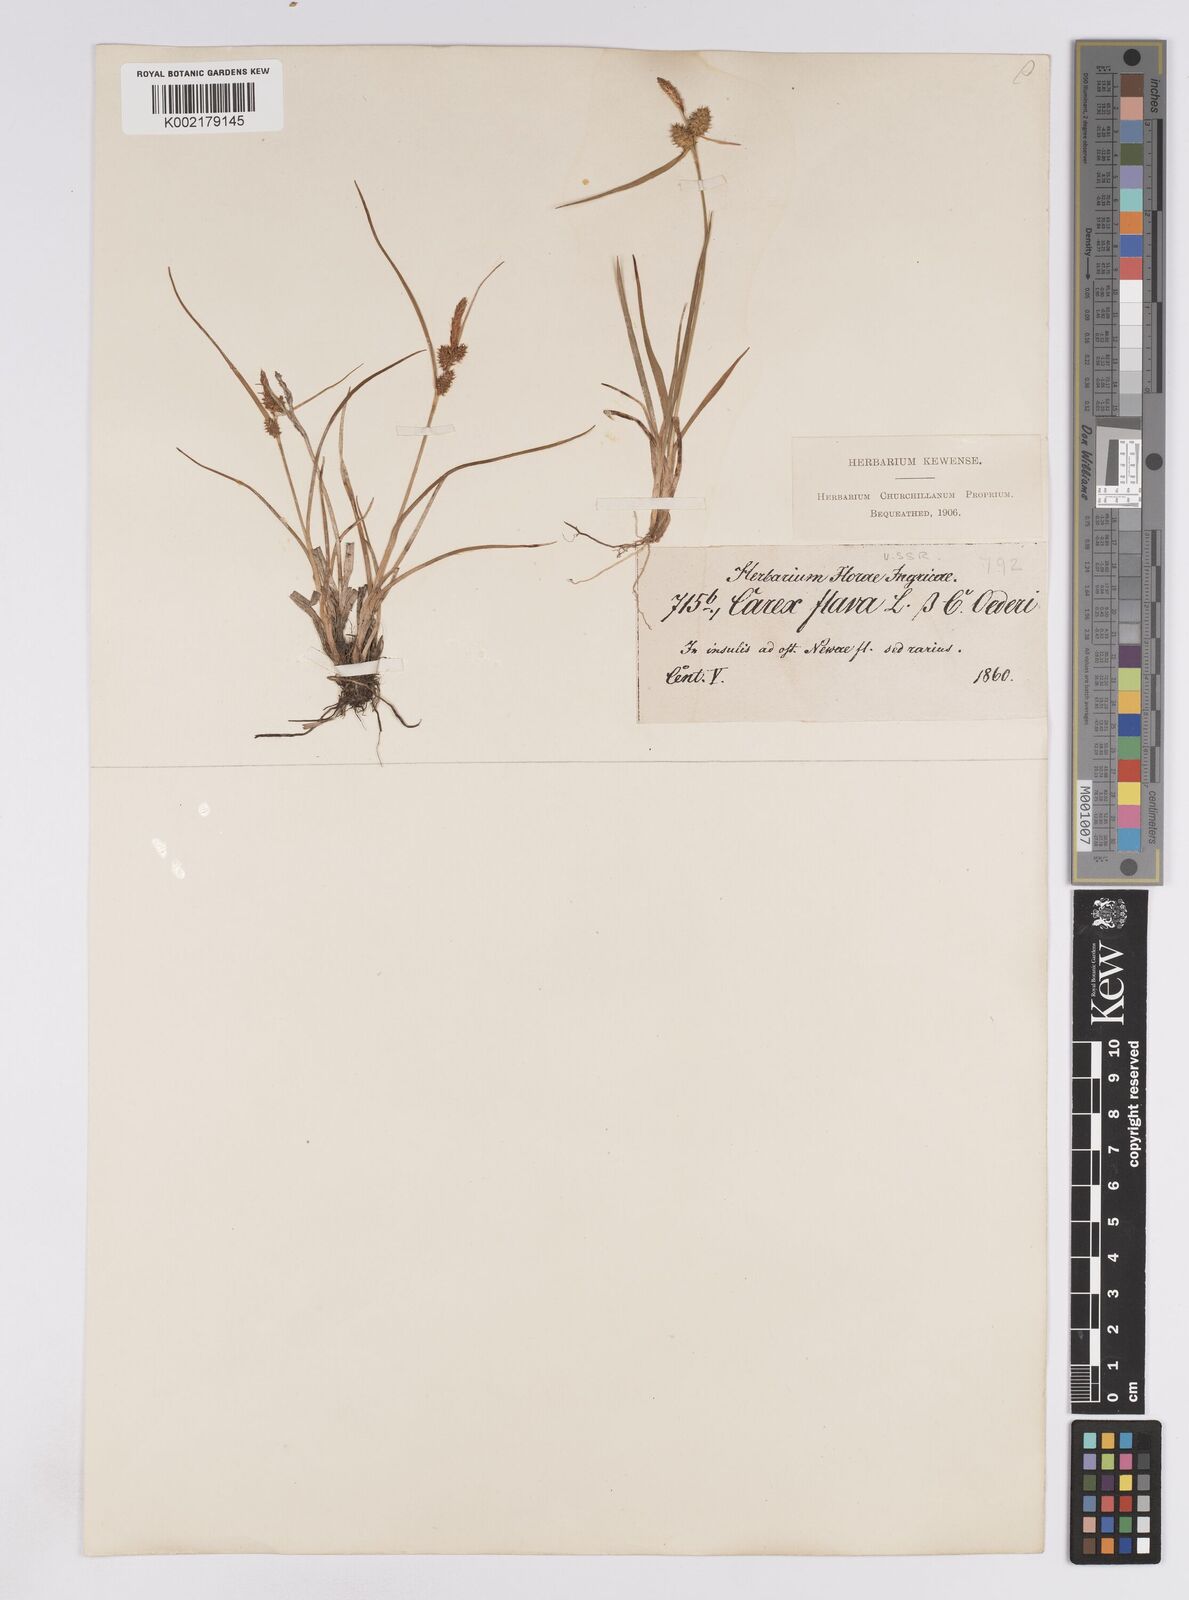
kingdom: Plantae
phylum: Tracheophyta
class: Liliopsida
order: Poales
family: Cyperaceae
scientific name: Cyperaceae
